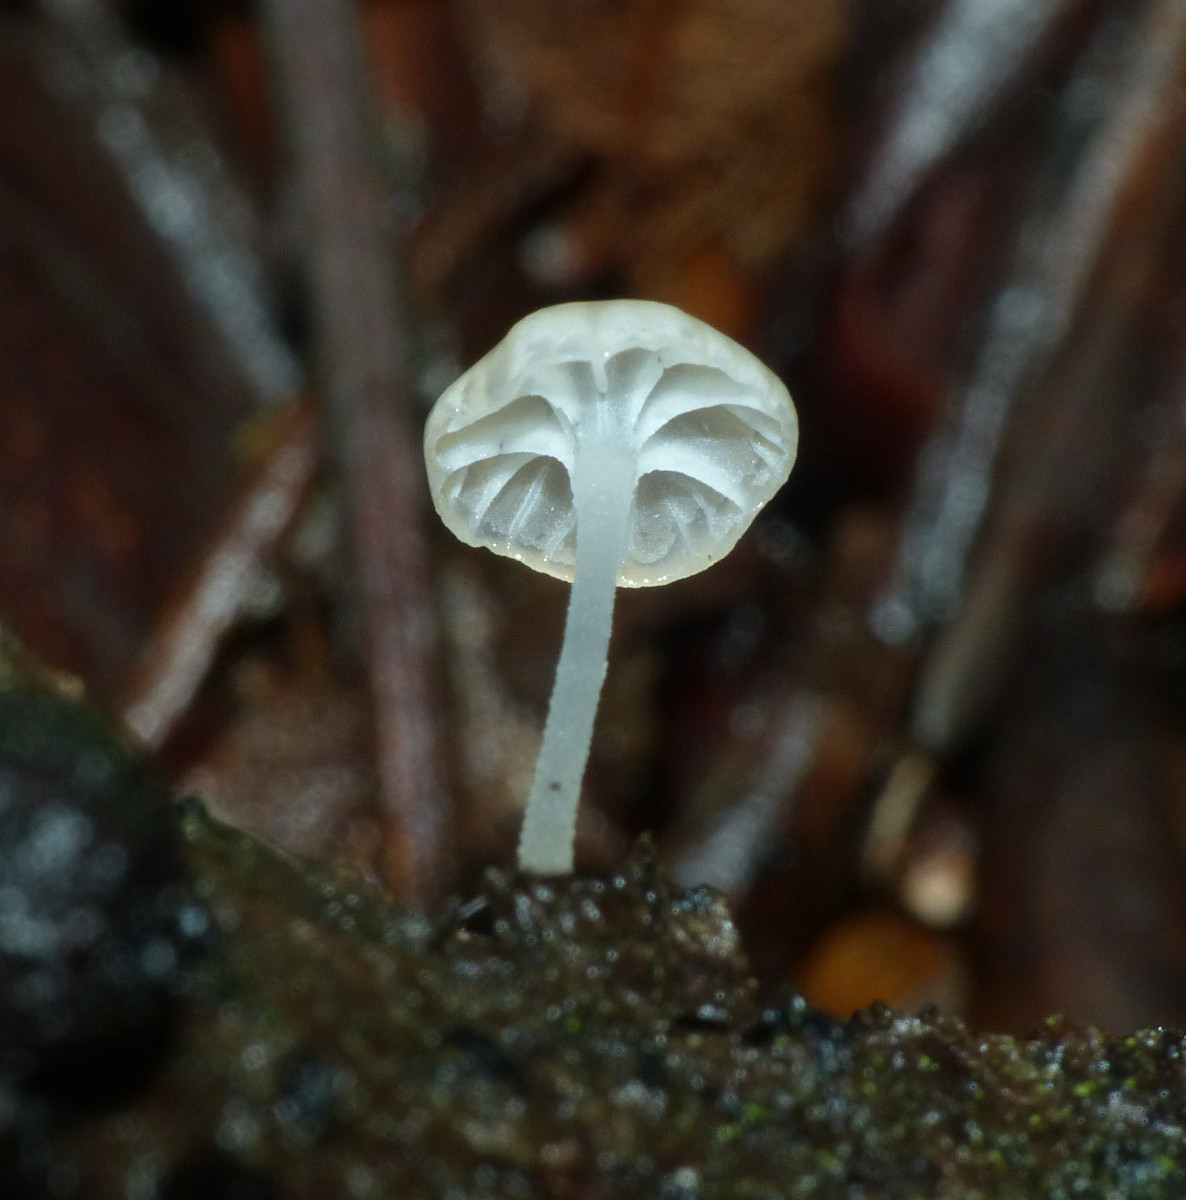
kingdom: Fungi
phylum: Basidiomycota
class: Agaricomycetes
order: Agaricales
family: Porotheleaceae
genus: Phloeomana
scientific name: Phloeomana speirea
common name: kvist-huesvamp
